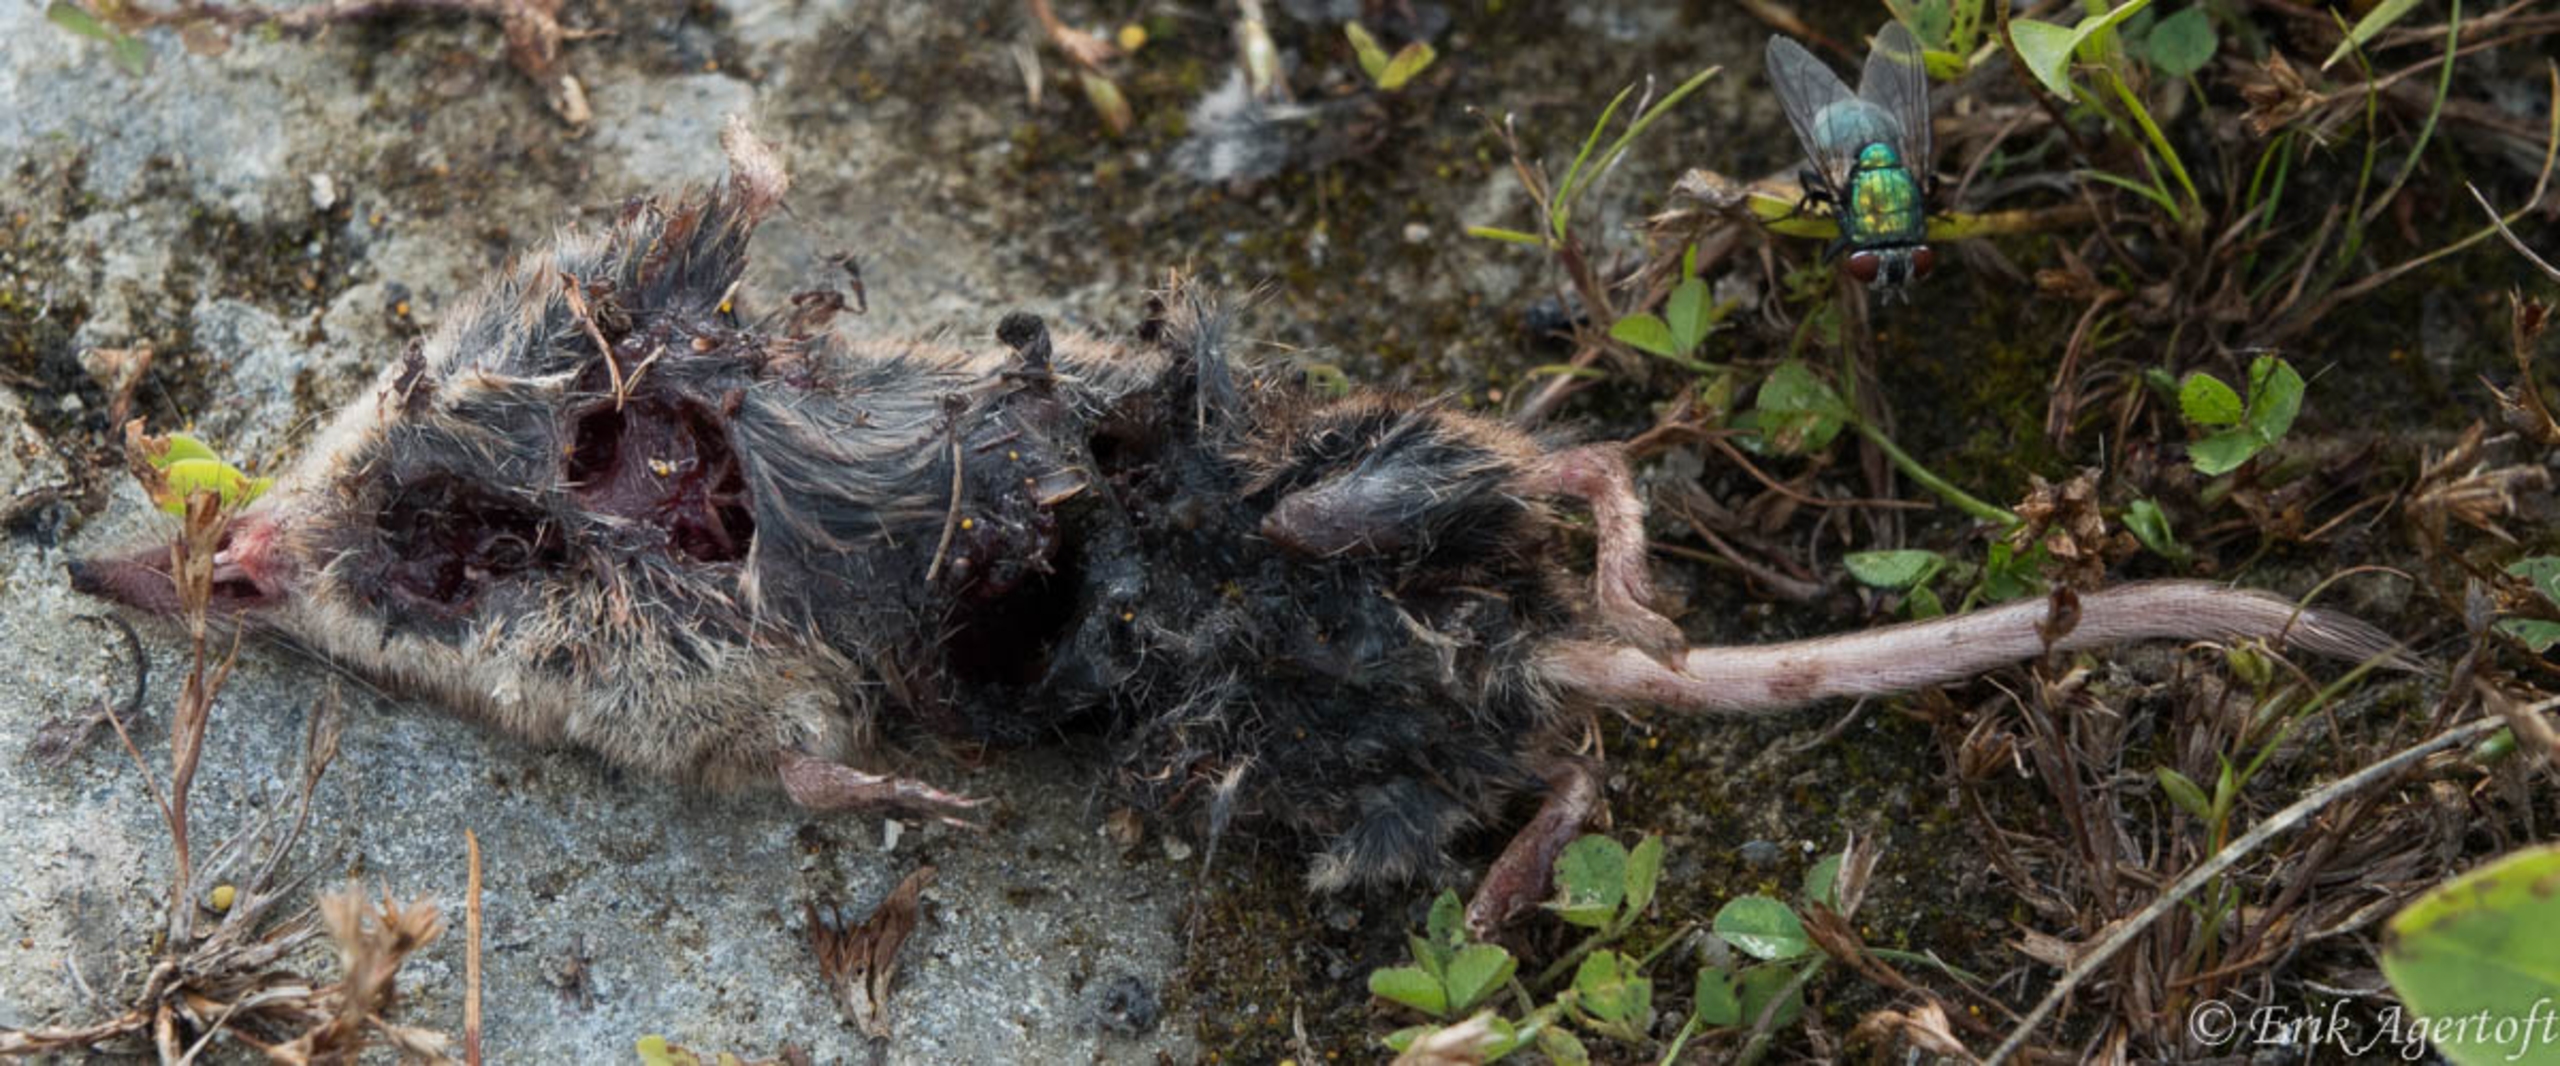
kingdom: Animalia
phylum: Chordata
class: Mammalia
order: Soricomorpha
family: Soricidae
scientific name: Soricidae
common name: Spidsmus
